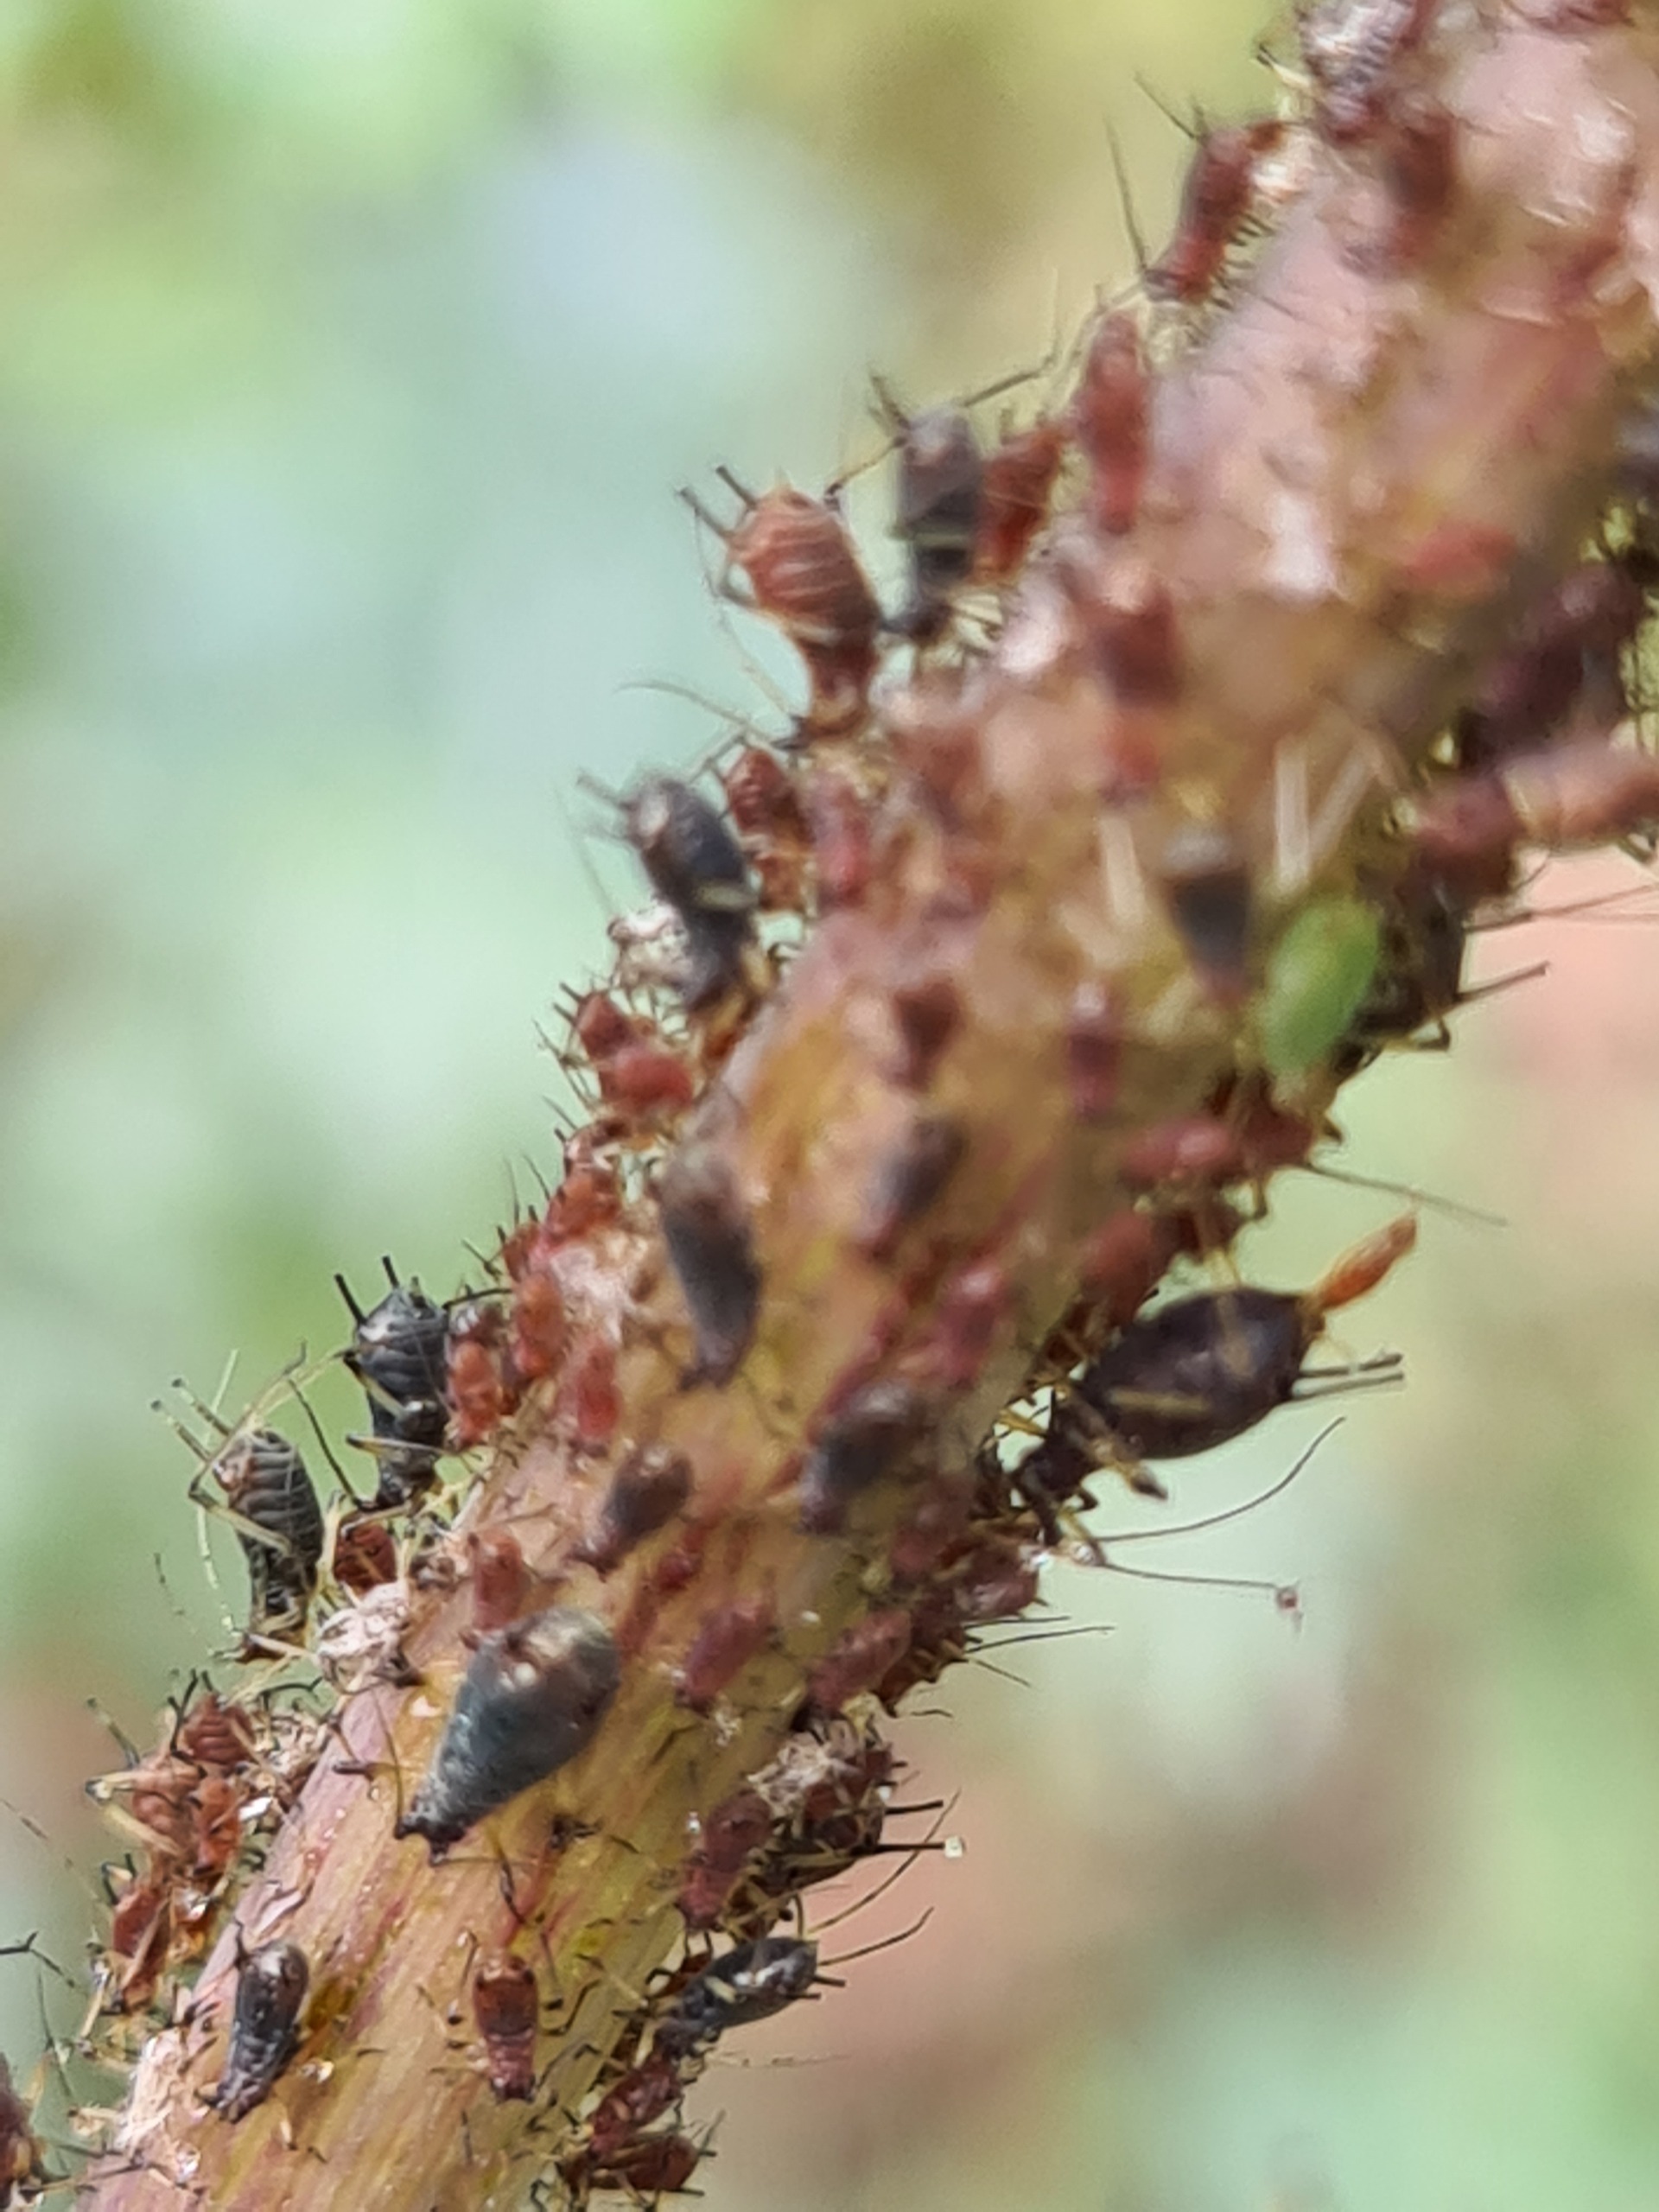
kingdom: Animalia
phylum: Arthropoda
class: Insecta
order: Hemiptera
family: Aphididae
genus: Uroleucon
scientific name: Uroleucon tanaceti
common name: Rød rejnfanbladlus
